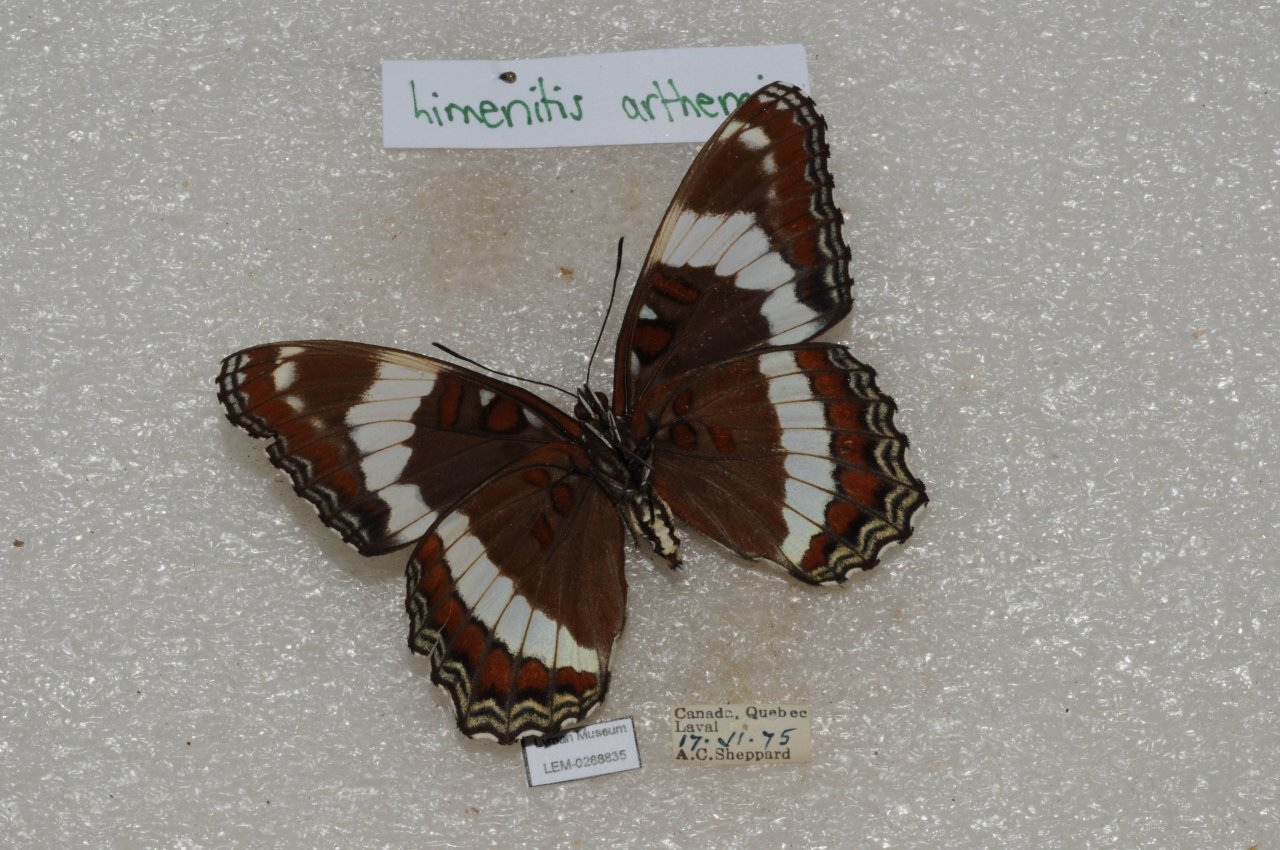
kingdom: Animalia
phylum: Arthropoda
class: Insecta
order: Lepidoptera
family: Nymphalidae
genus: Limenitis
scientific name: Limenitis arthemis
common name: Red-spotted Admiral
